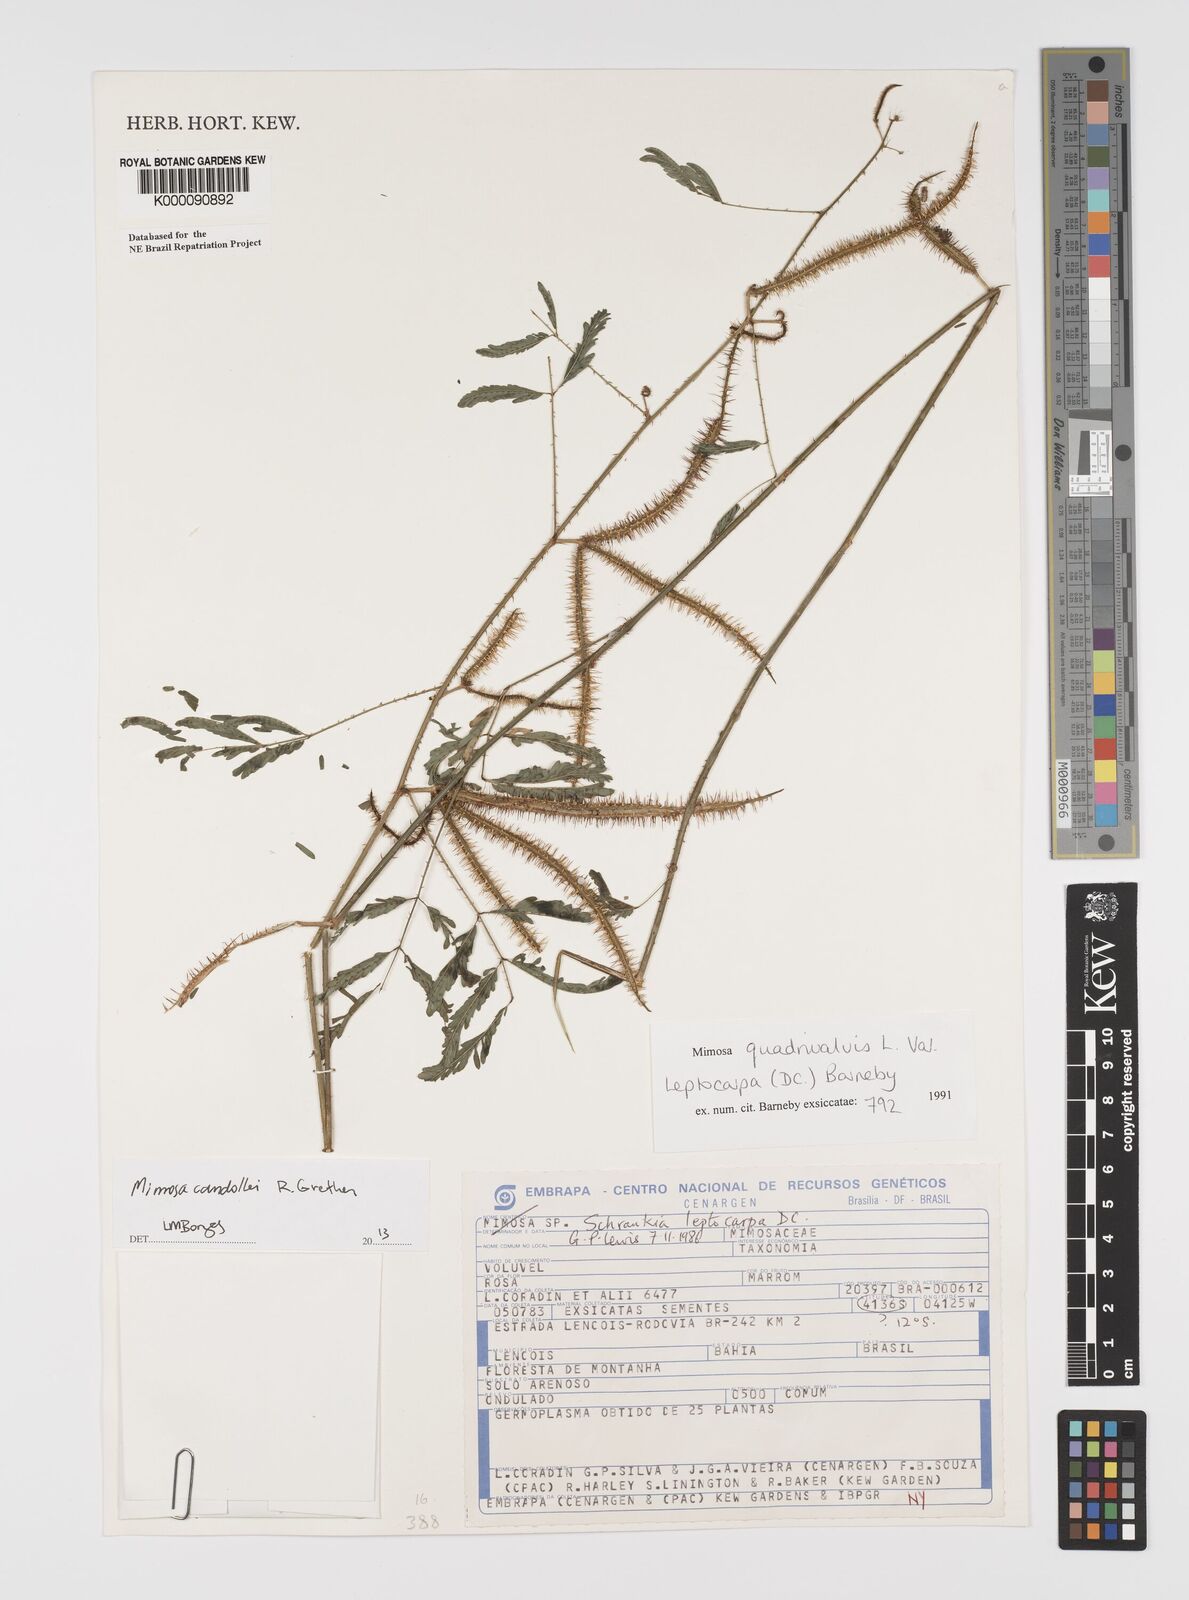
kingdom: Plantae
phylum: Tracheophyta
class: Magnoliopsida
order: Fabales
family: Fabaceae
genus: Mimosa
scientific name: Mimosa candollei
